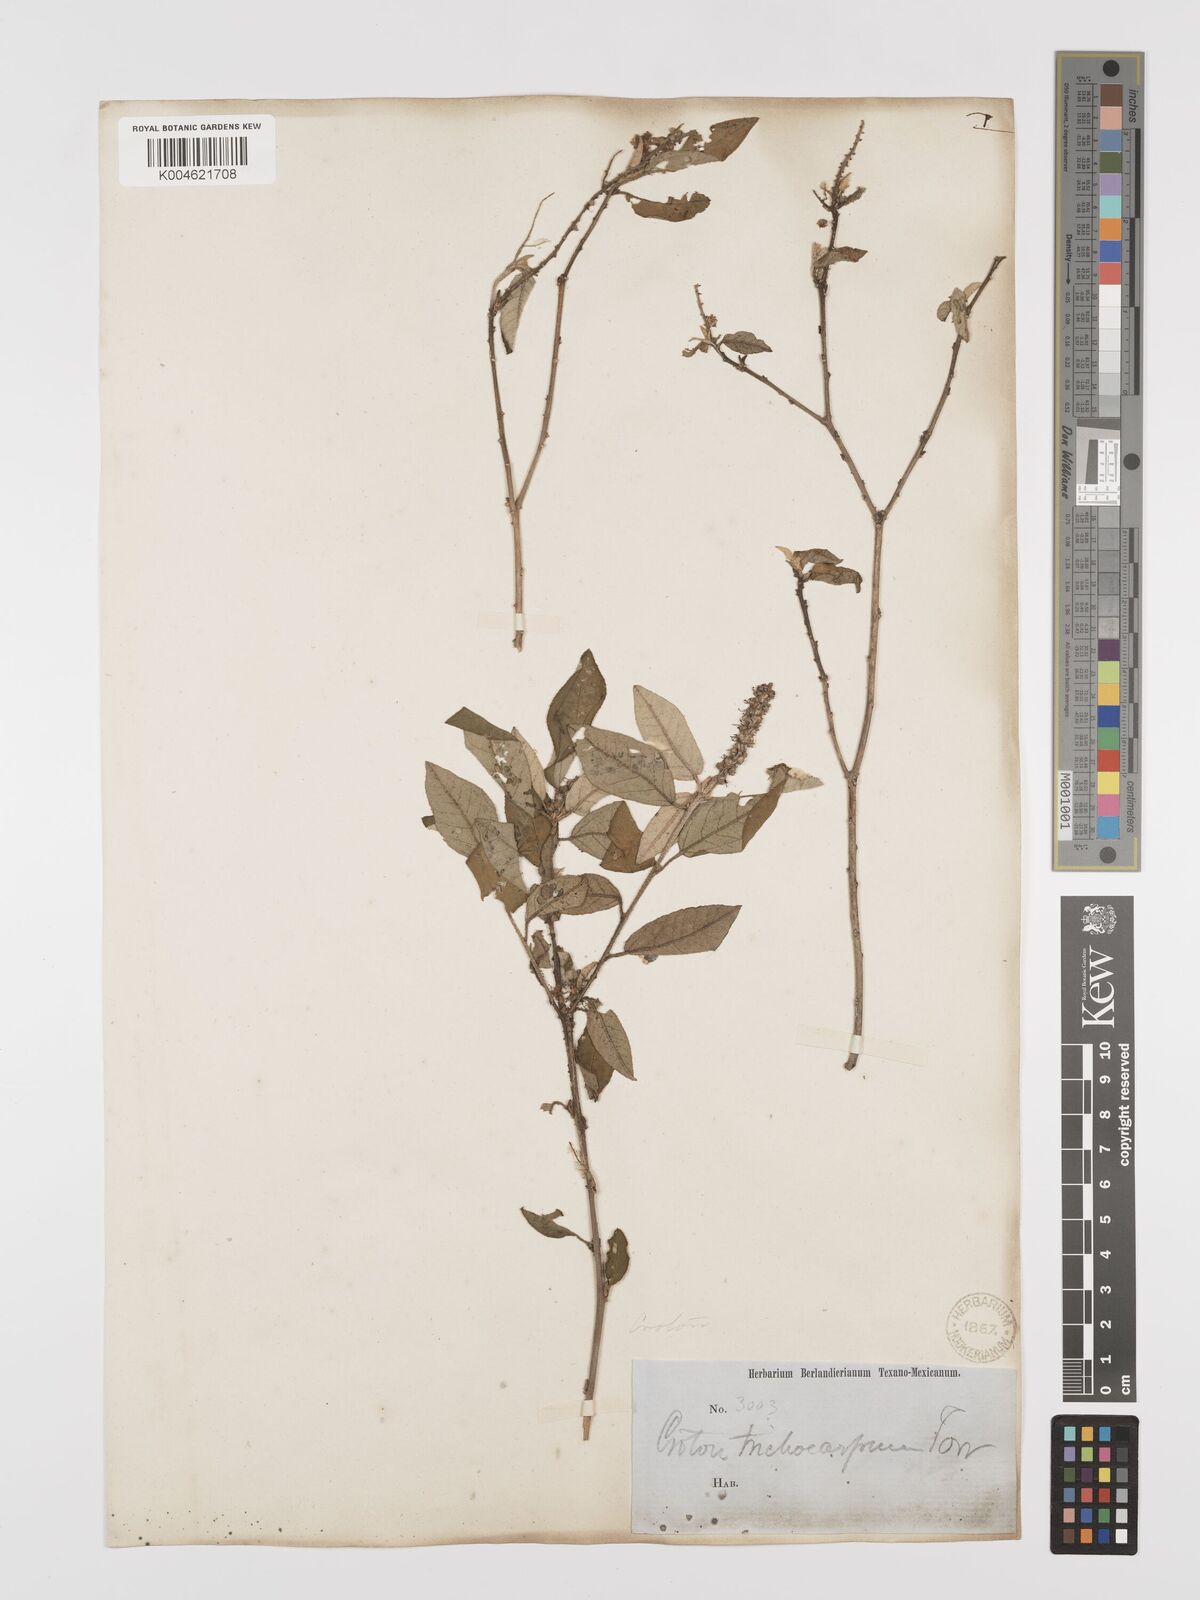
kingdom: Plantae
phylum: Tracheophyta
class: Magnoliopsida
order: Malpighiales
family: Euphorbiaceae
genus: Croton
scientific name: Croton cortesianus
